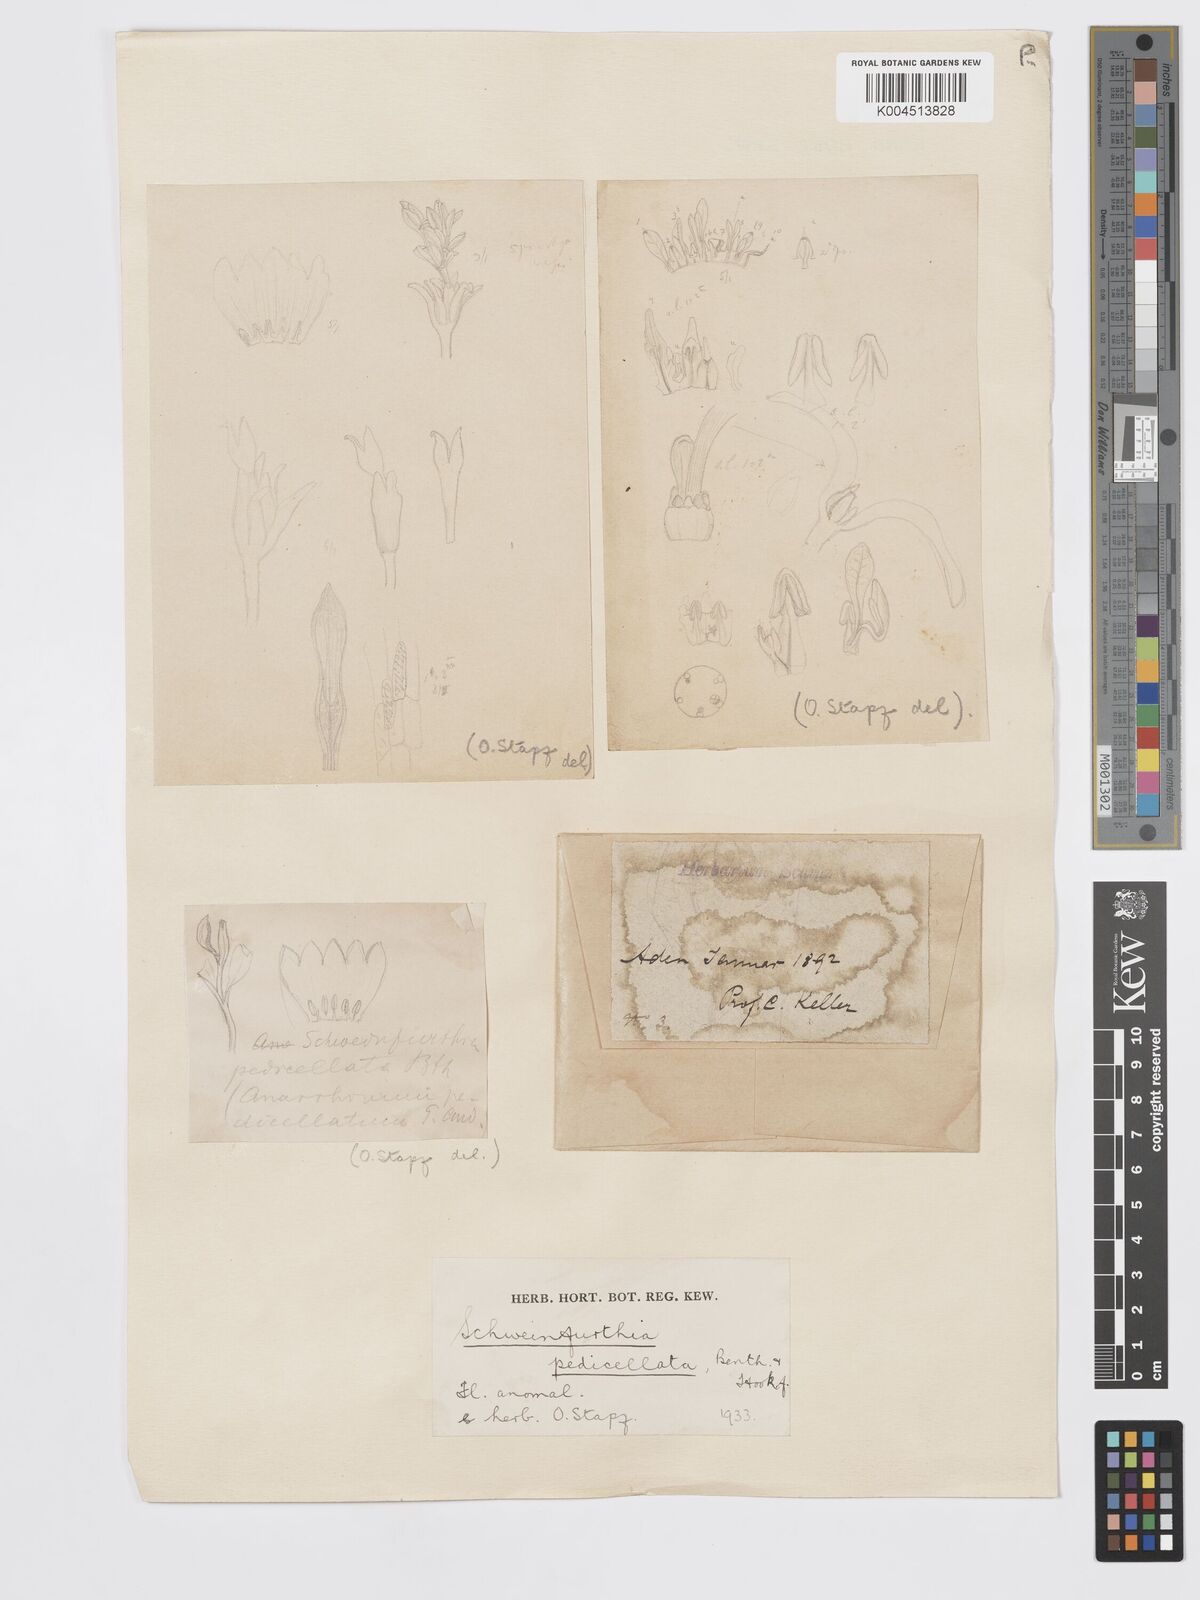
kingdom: Plantae
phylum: Tracheophyta
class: Magnoliopsida
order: Lamiales
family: Plantaginaceae
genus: Schweinfurthia
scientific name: Schweinfurthia pedicellata
